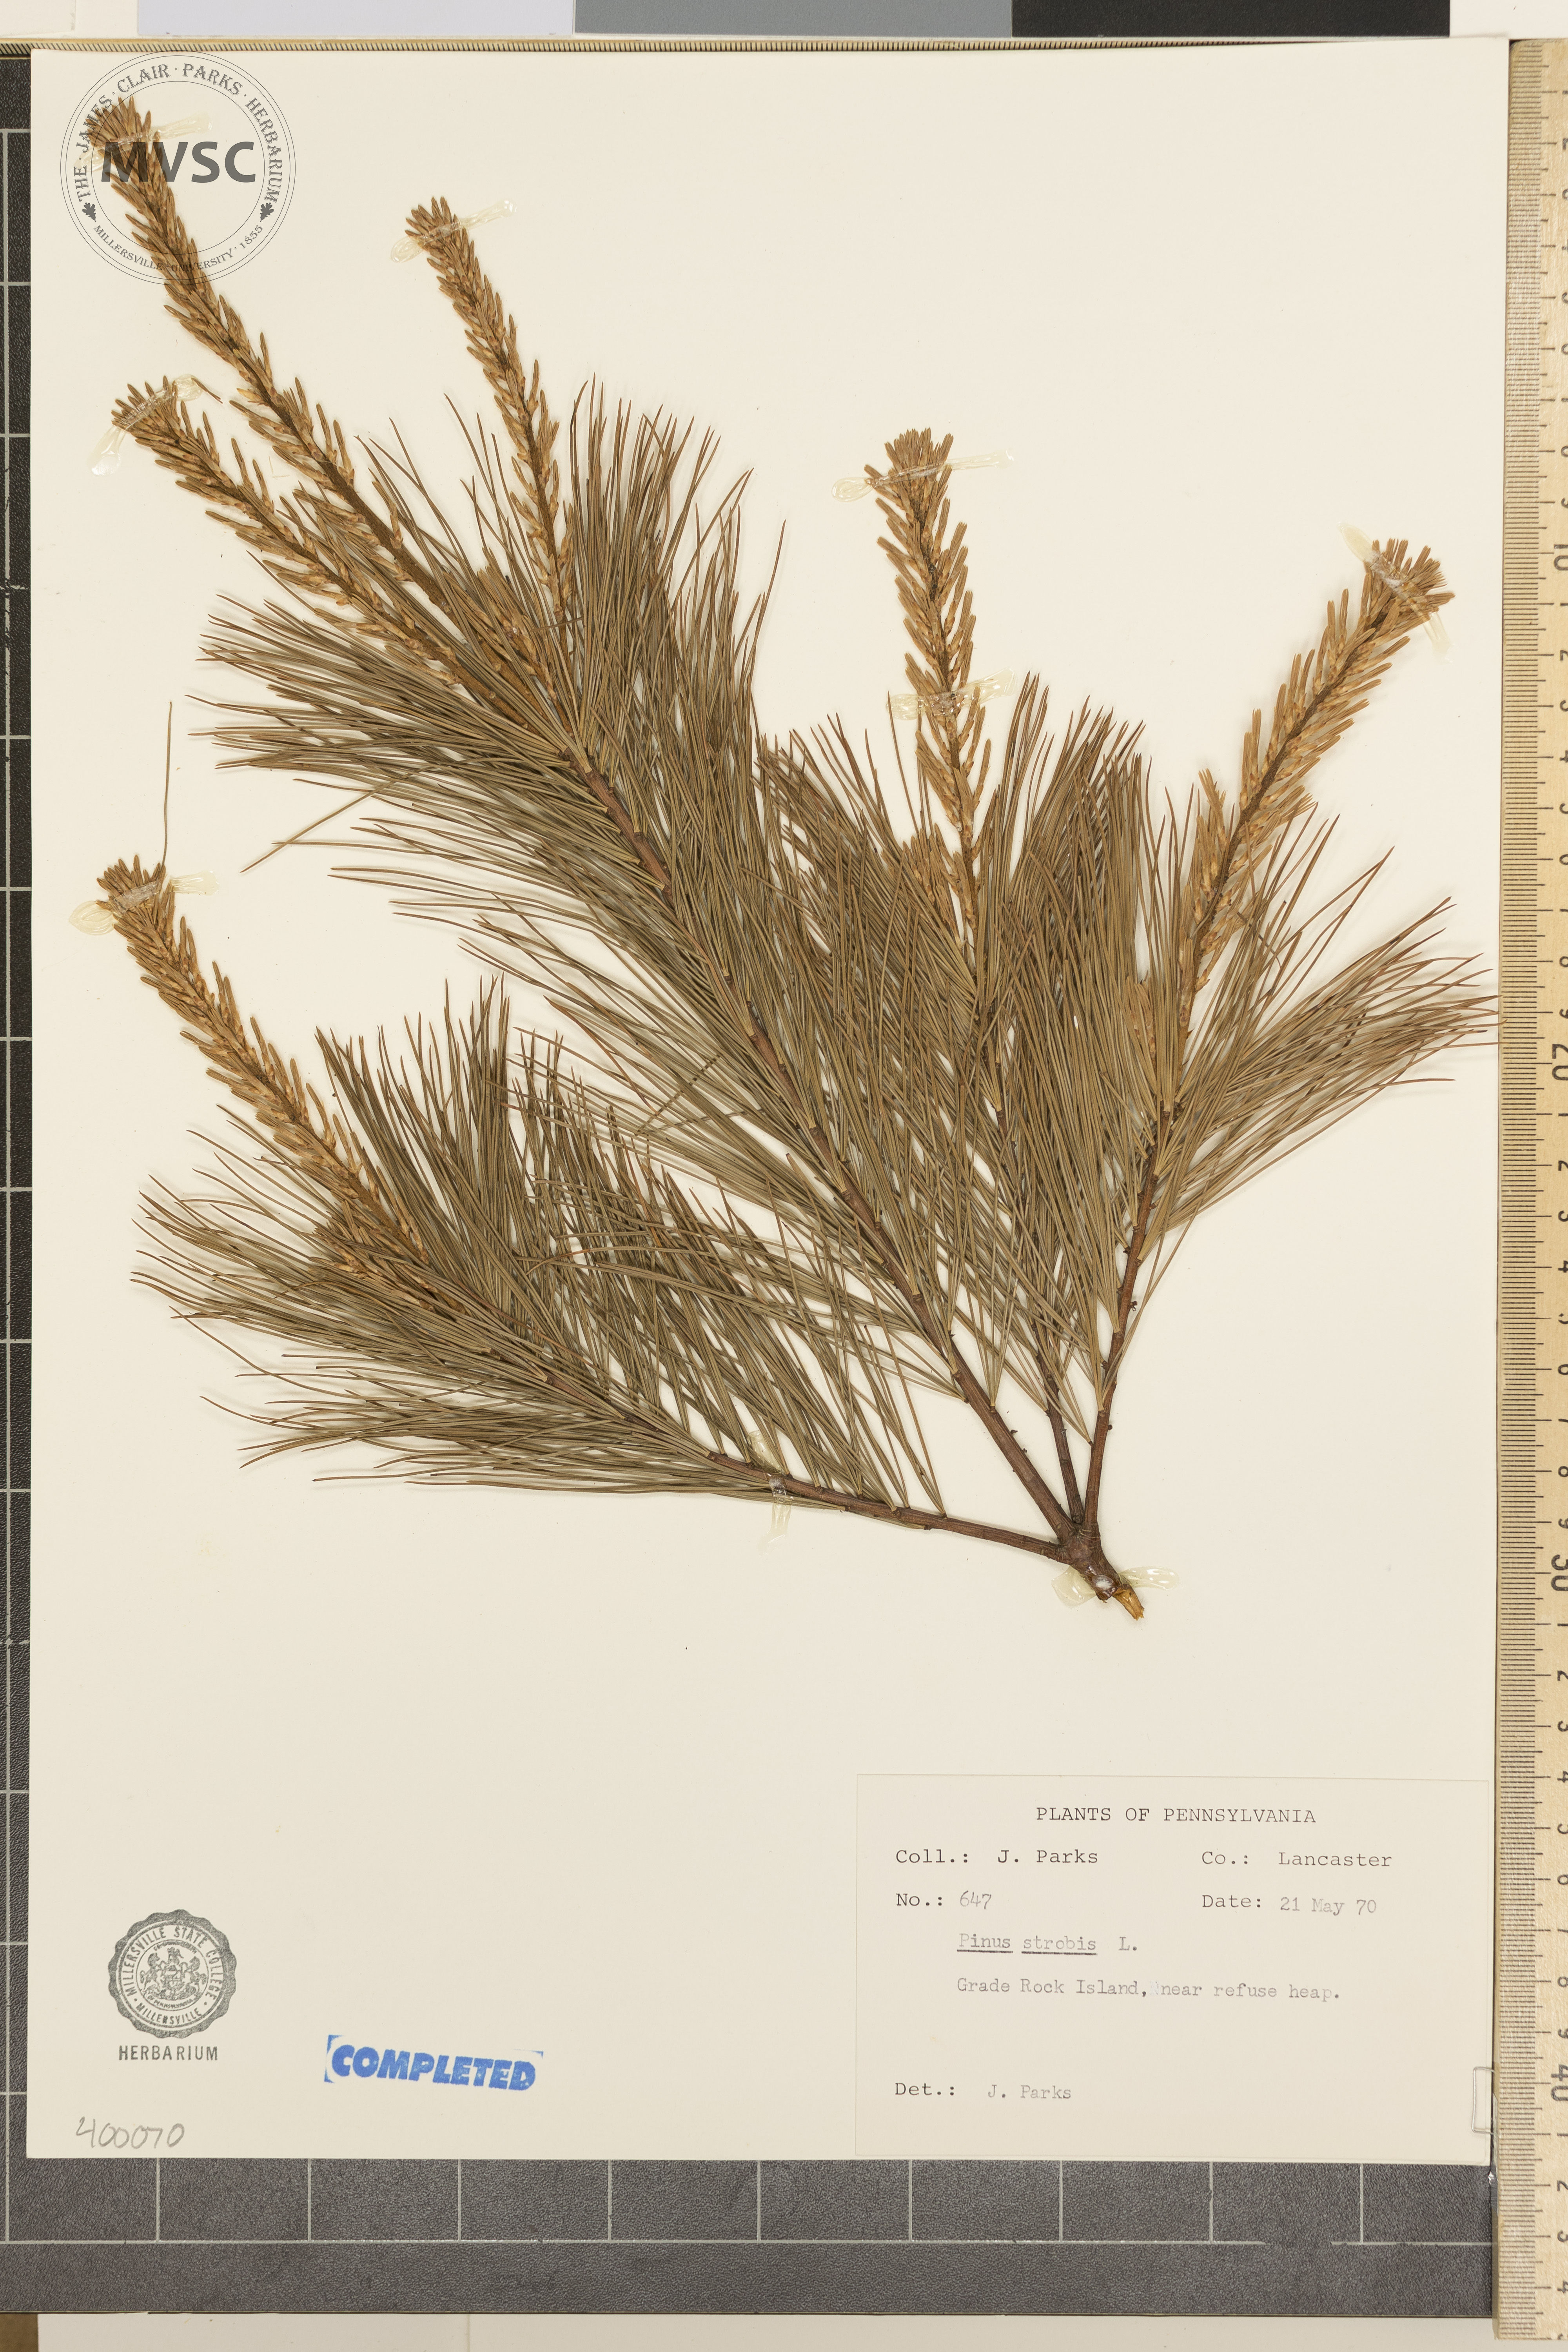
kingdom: Plantae
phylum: Tracheophyta
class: Pinopsida
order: Pinales
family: Pinaceae
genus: Pinus
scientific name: Pinus strobus
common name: Eastern white pine
